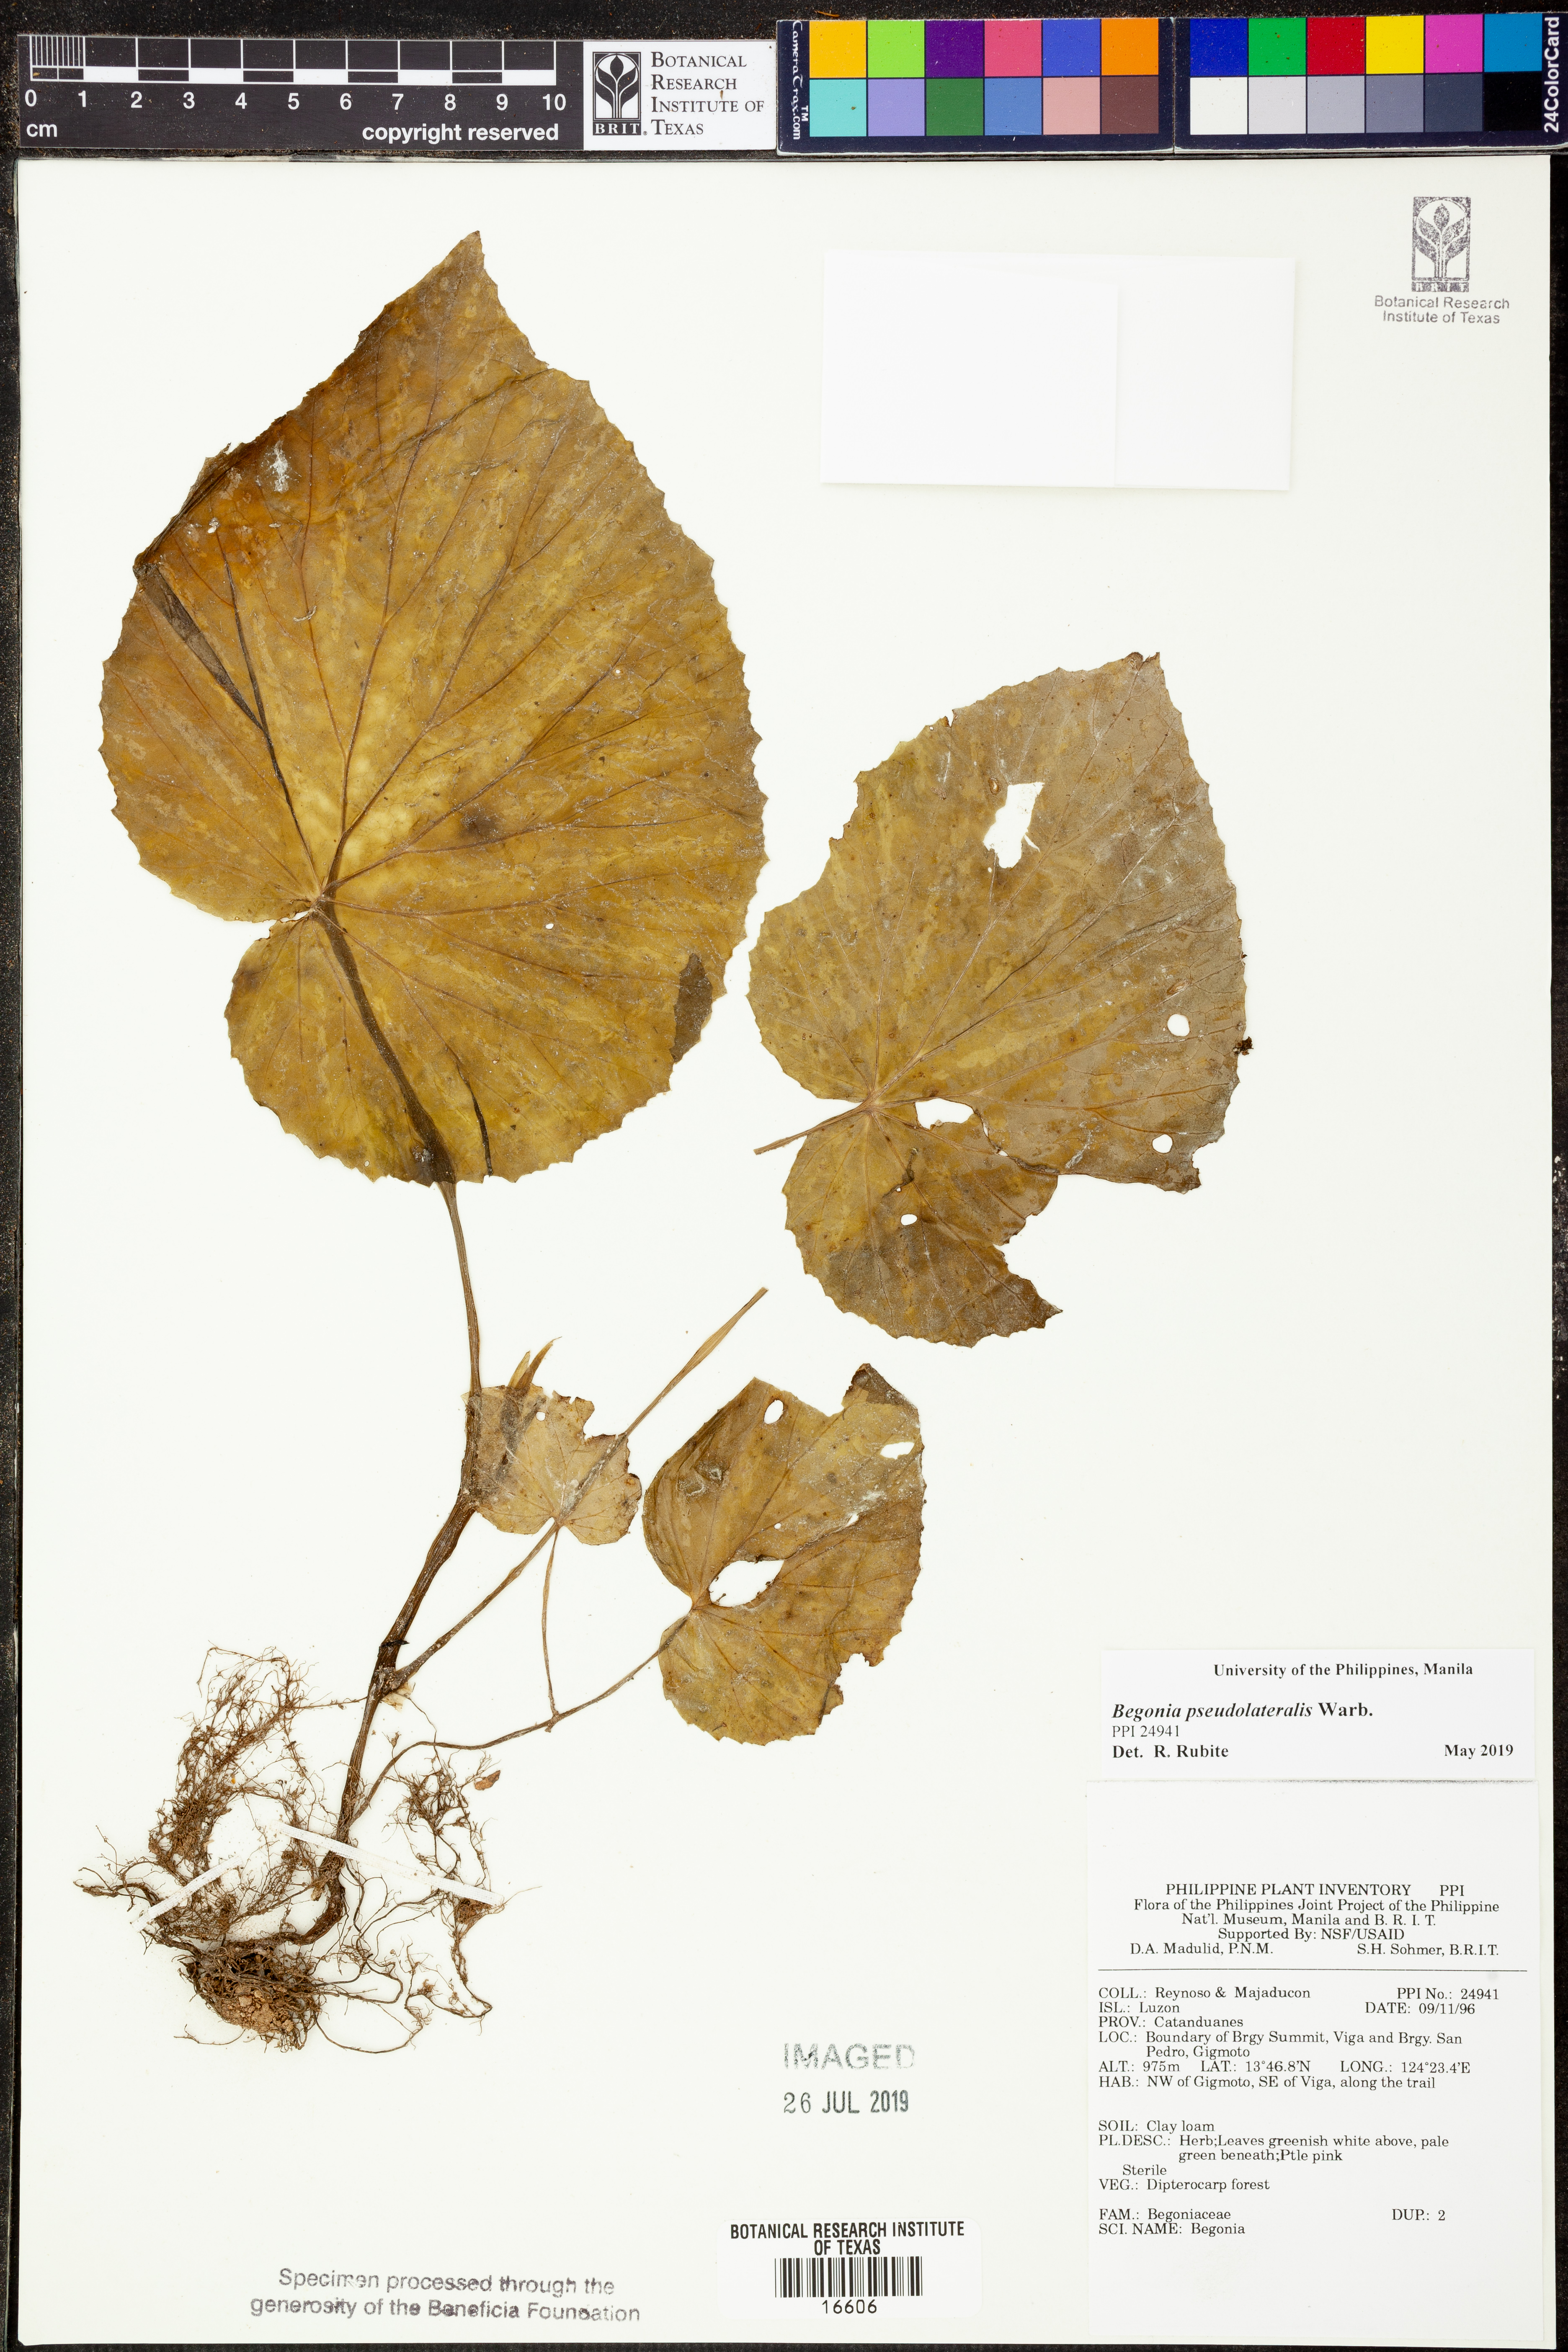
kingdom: Plantae
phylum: Tracheophyta
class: Magnoliopsida
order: Cucurbitales
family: Begoniaceae
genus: Begonia
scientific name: Begonia
